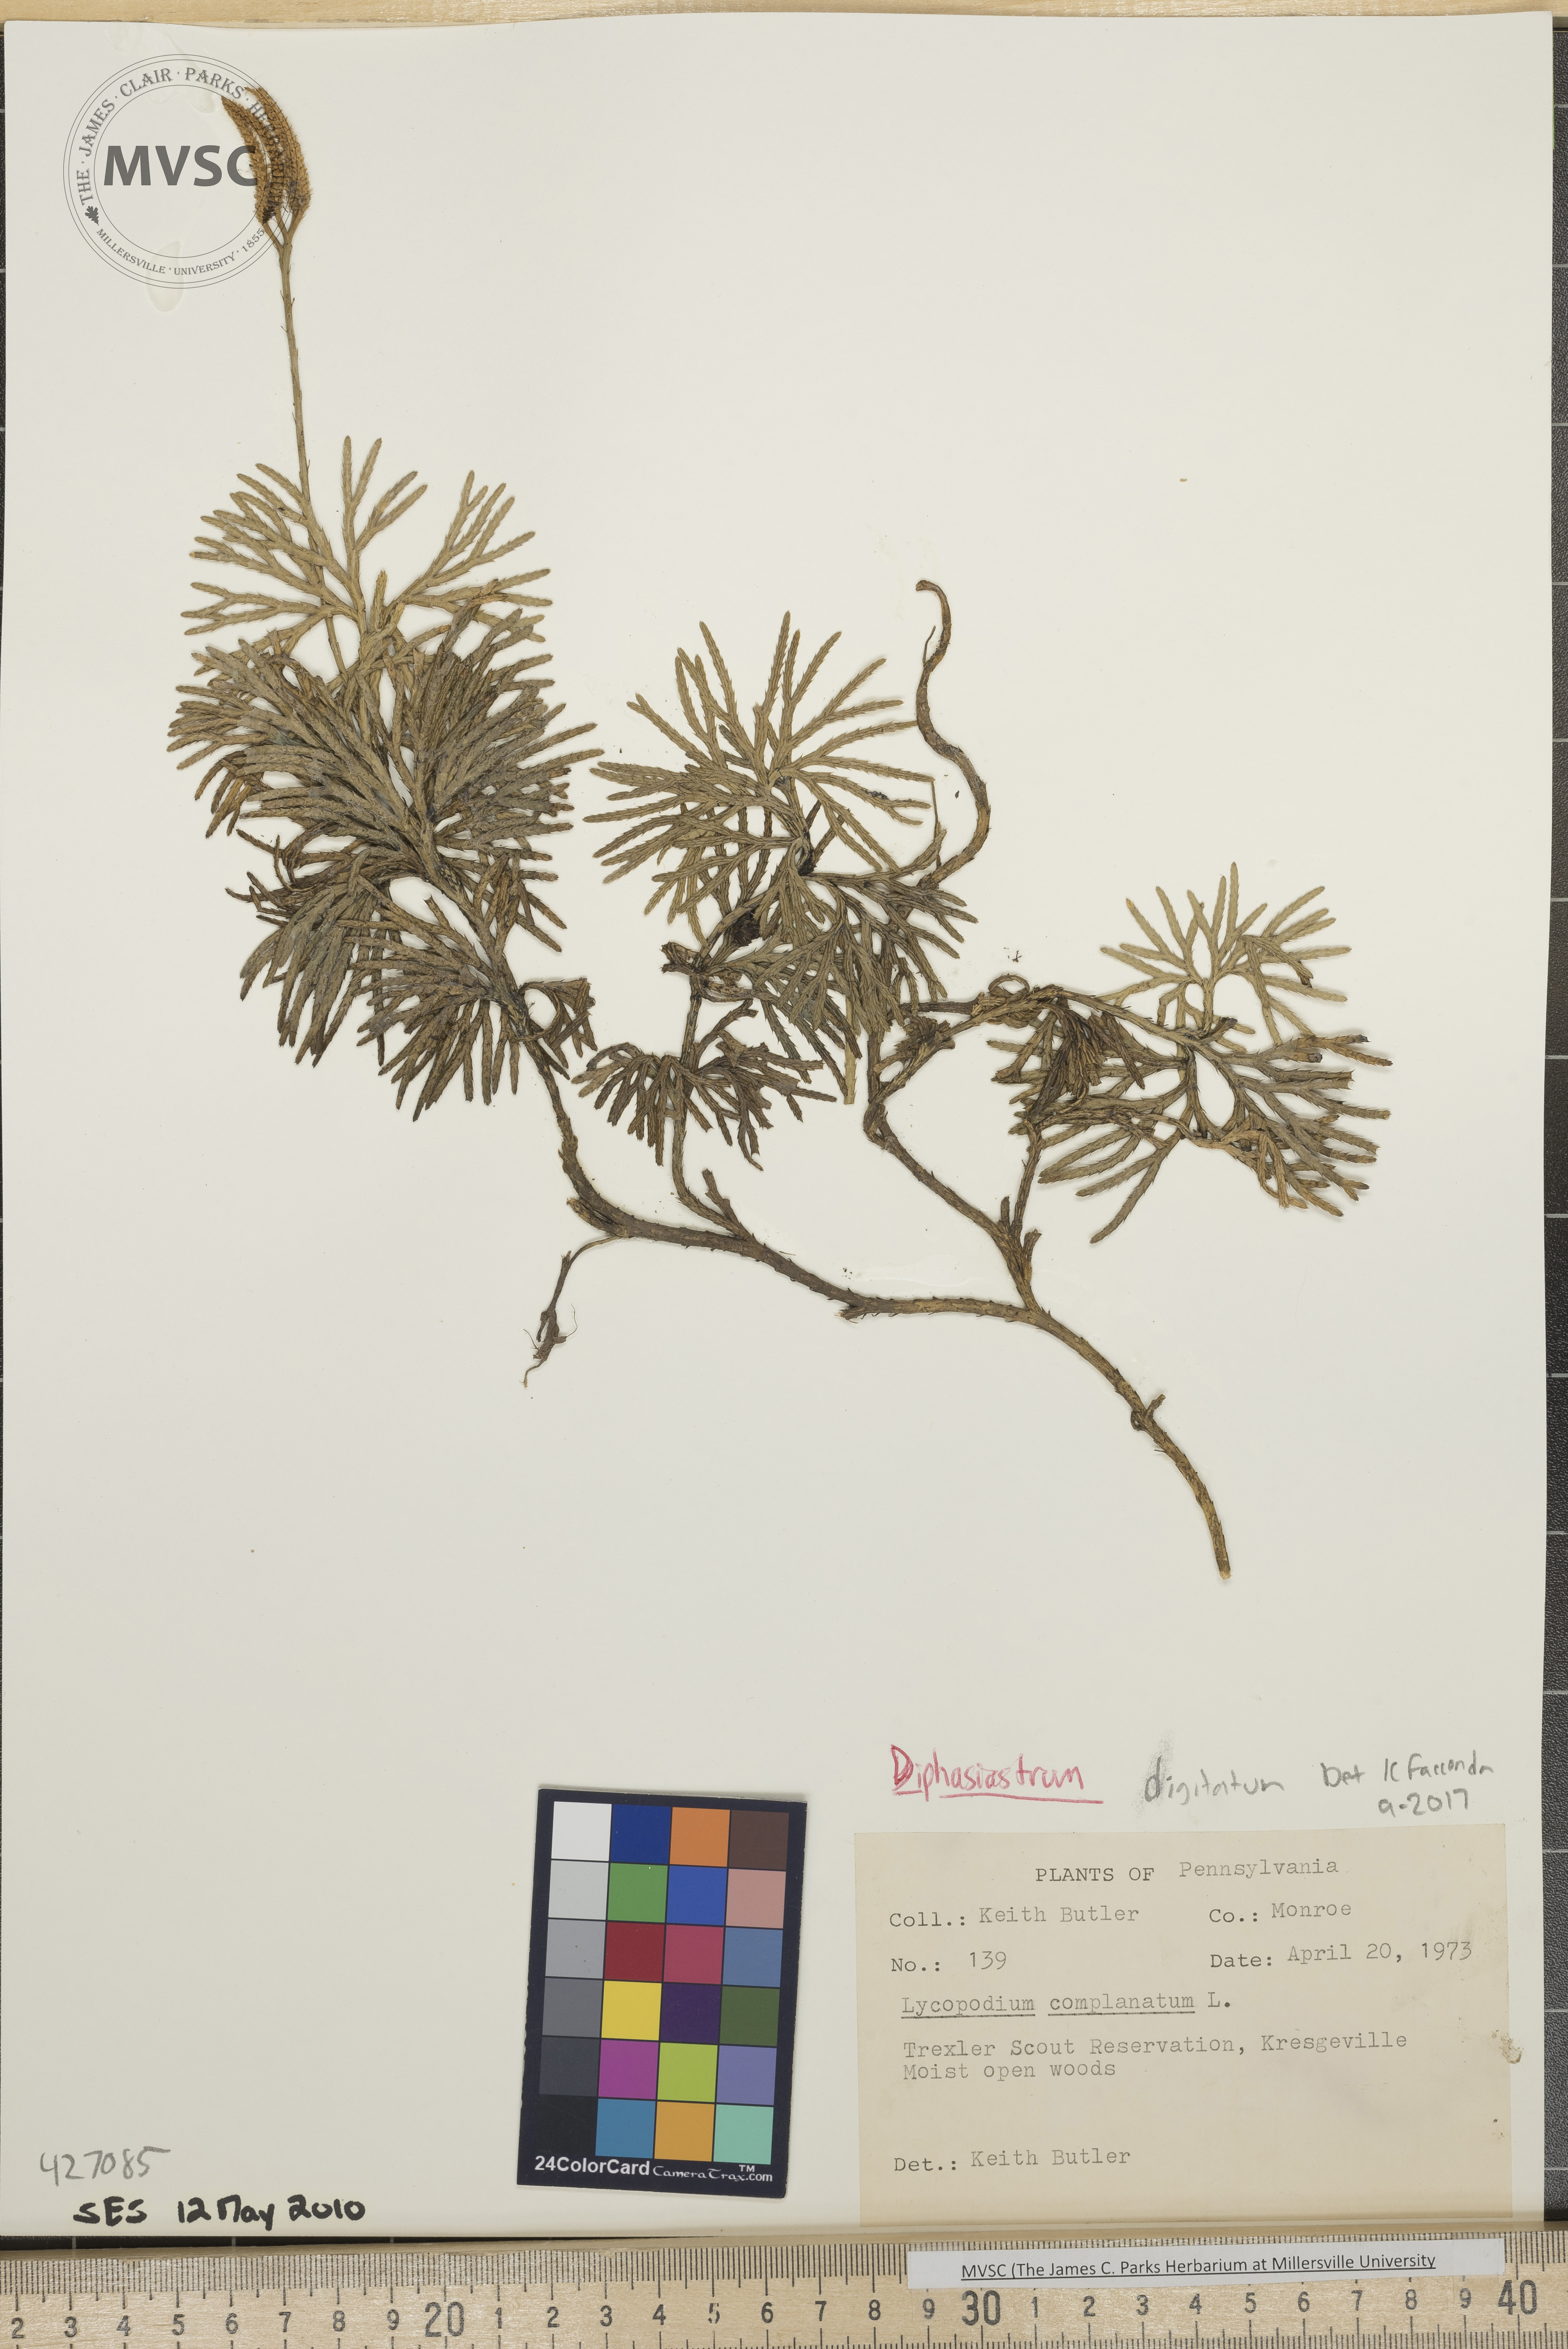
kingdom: Plantae
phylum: Tracheophyta
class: Lycopodiopsida
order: Lycopodiales
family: Lycopodiaceae
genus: Diphasiastrum
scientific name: Diphasiastrum digitatum
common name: Southern running-pine
